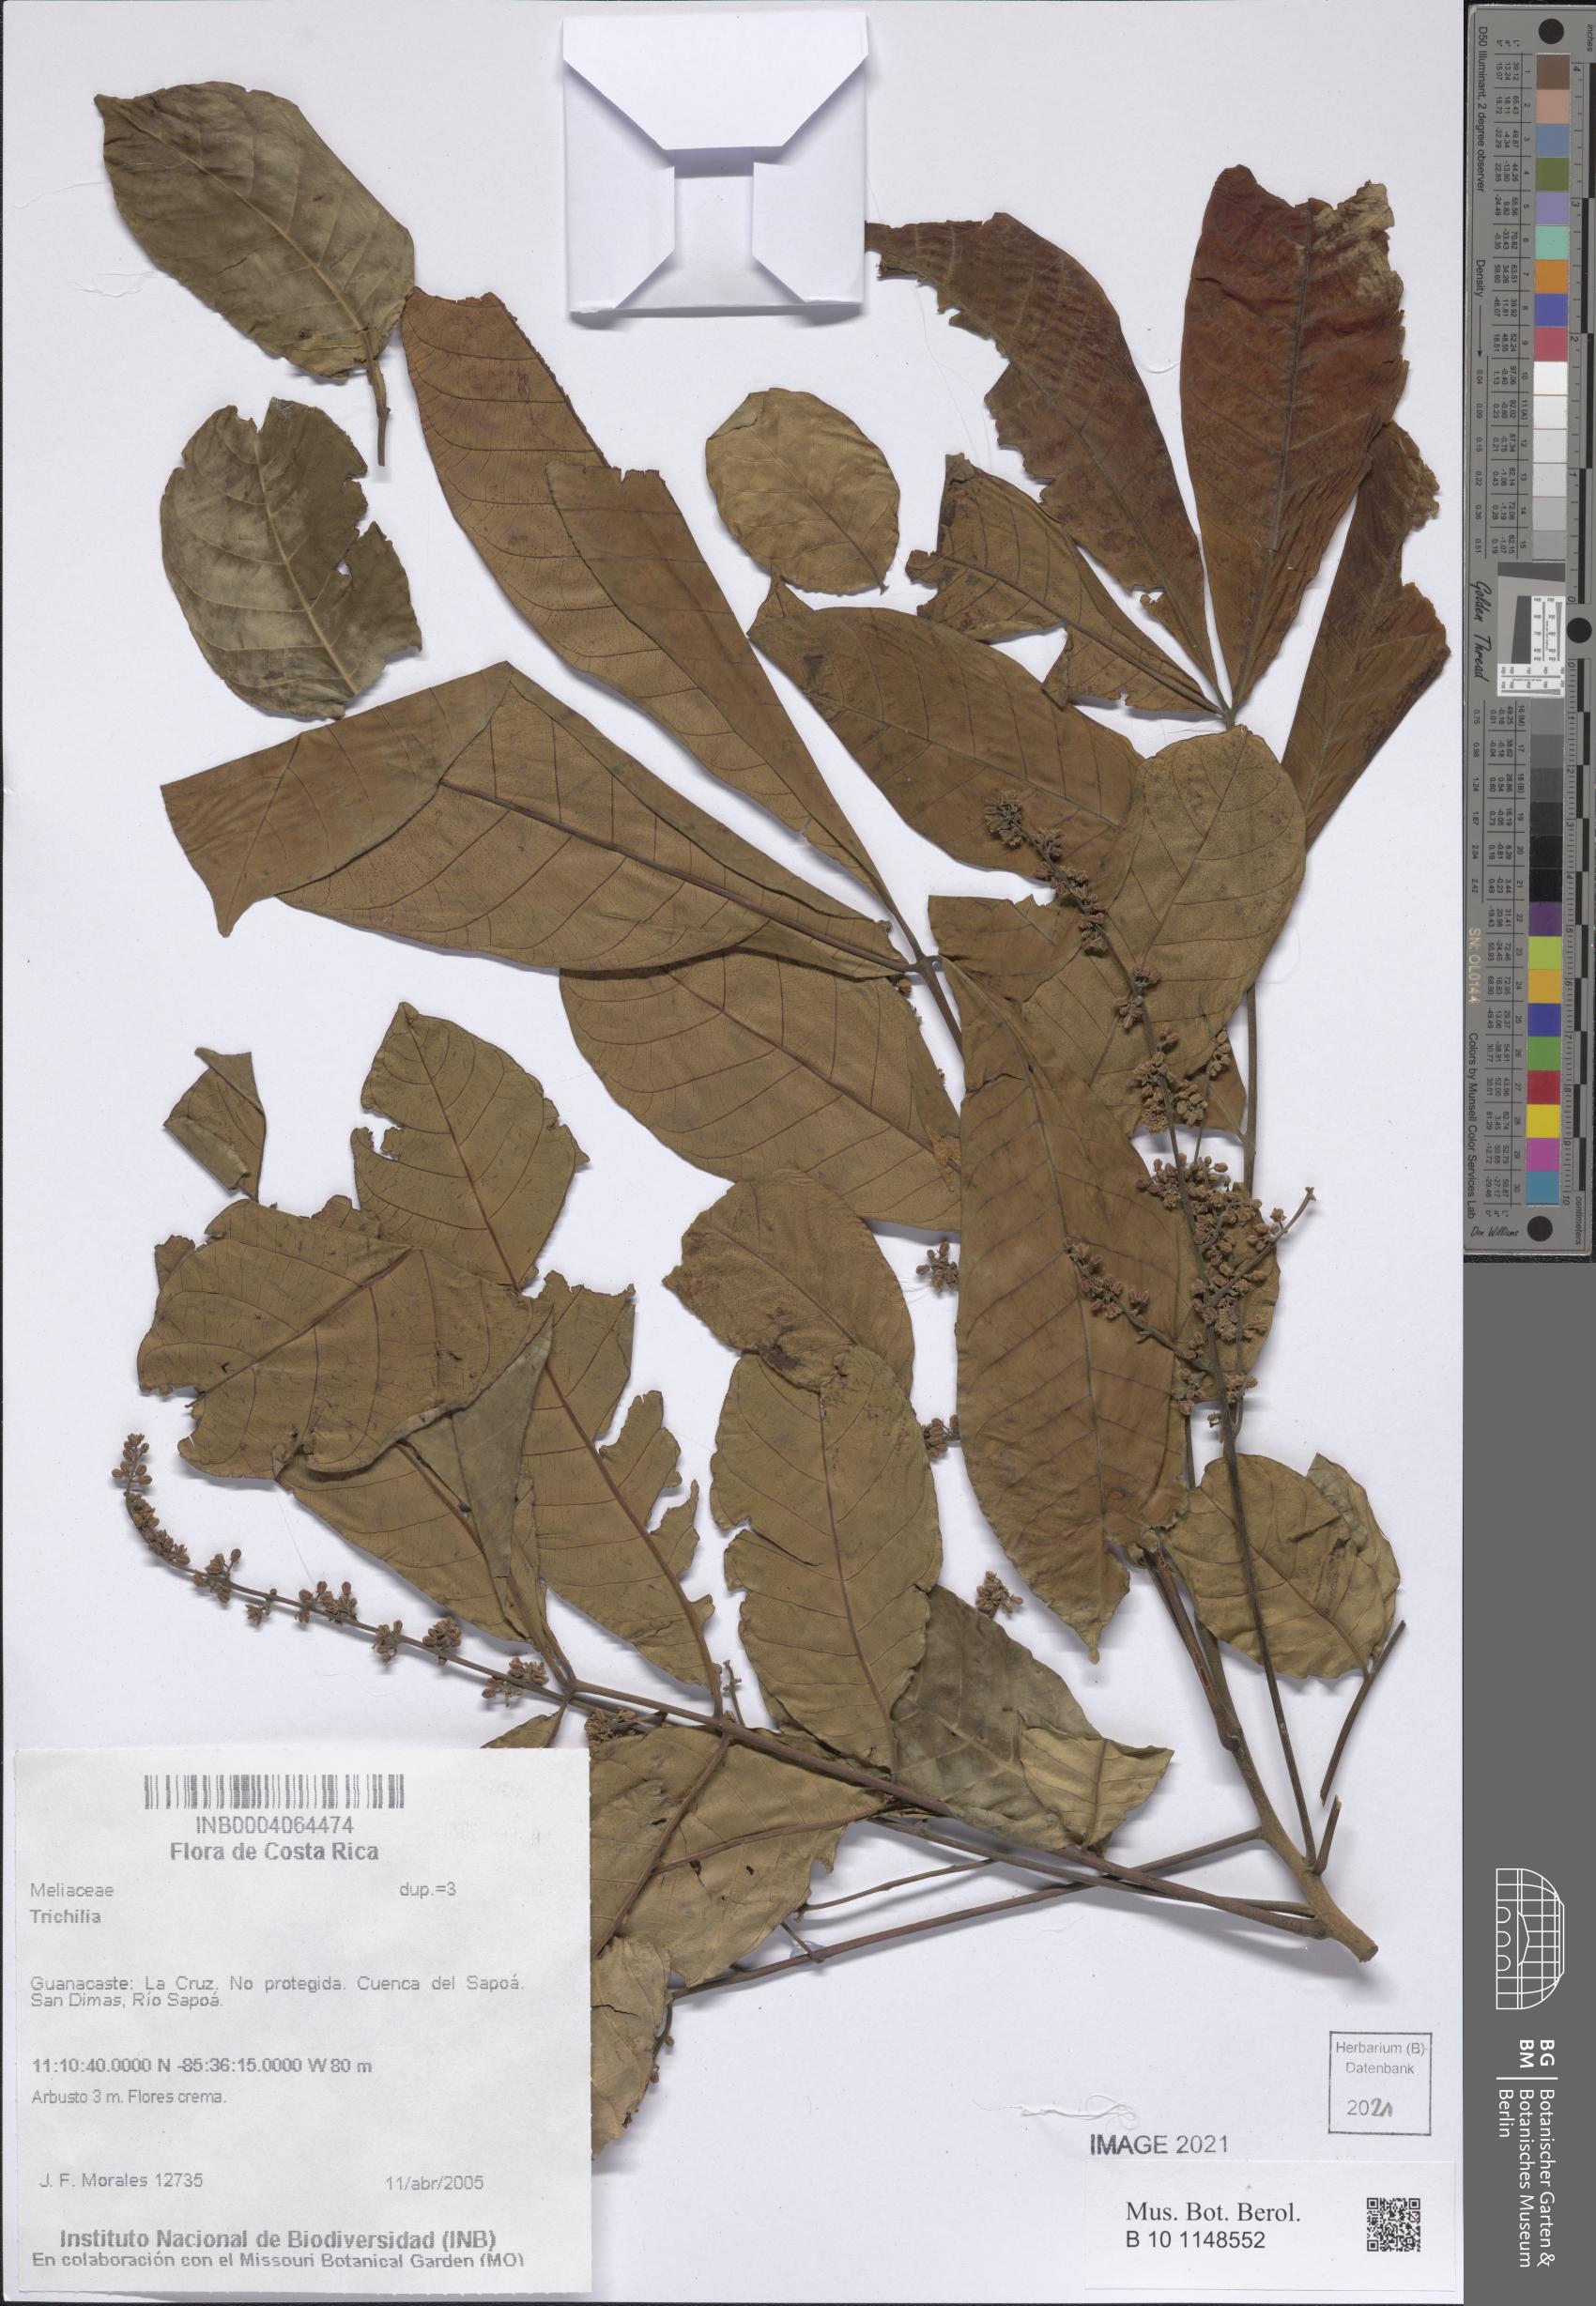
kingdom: Plantae
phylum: Tracheophyta
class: Magnoliopsida
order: Sapindales
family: Meliaceae
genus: Trichilia
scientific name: Trichilia
